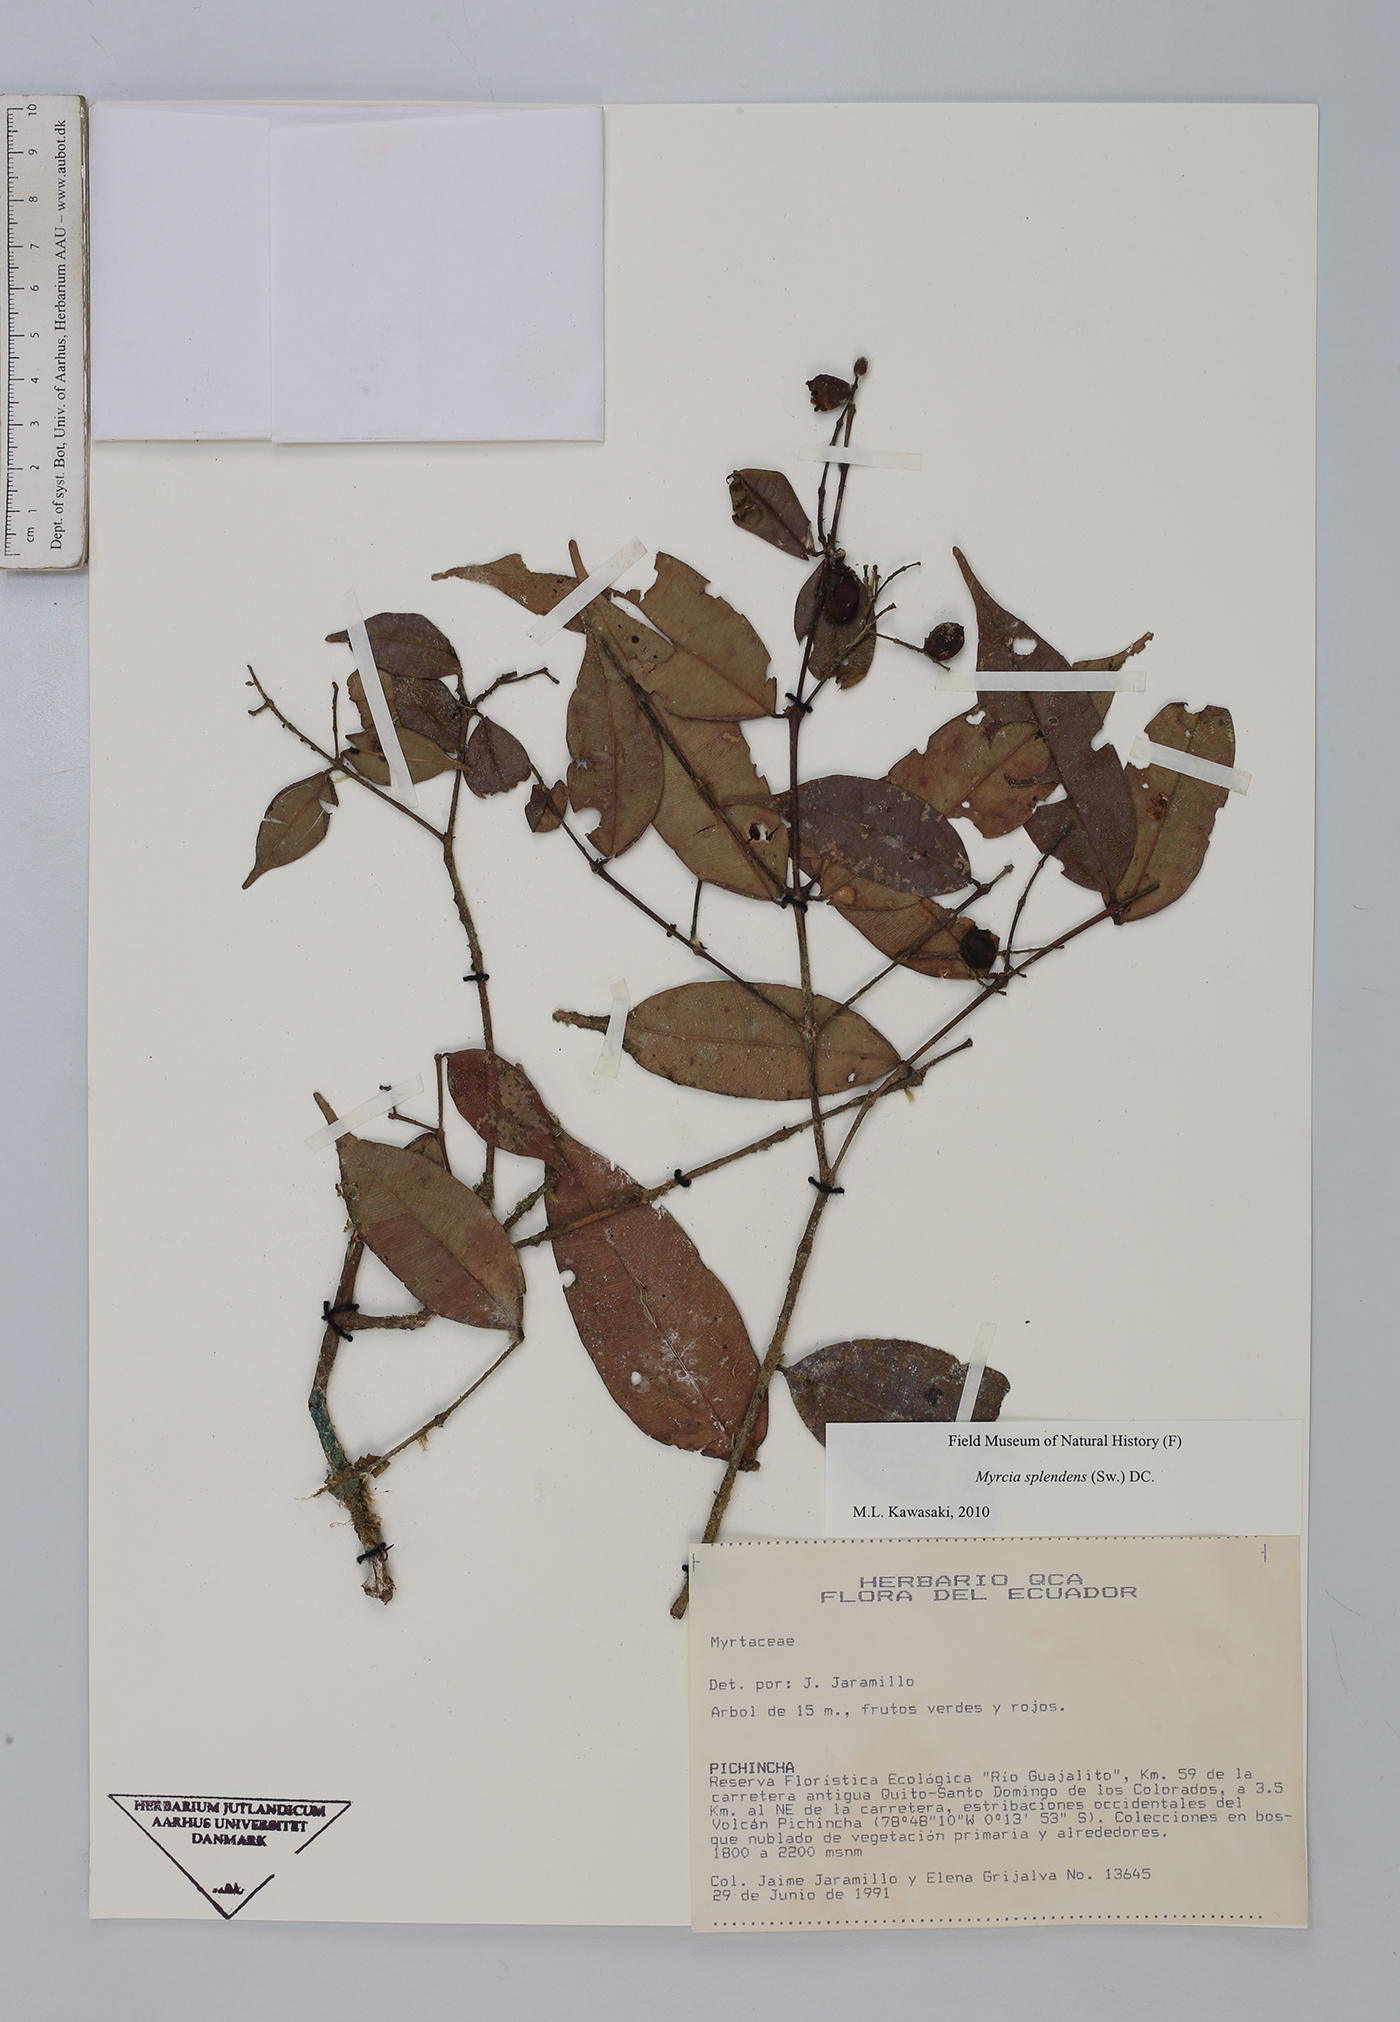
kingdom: Plantae
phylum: Tracheophyta
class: Magnoliopsida
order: Myrtales
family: Myrtaceae
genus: Myrcia
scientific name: Myrcia splendens
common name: Surinam cherry
